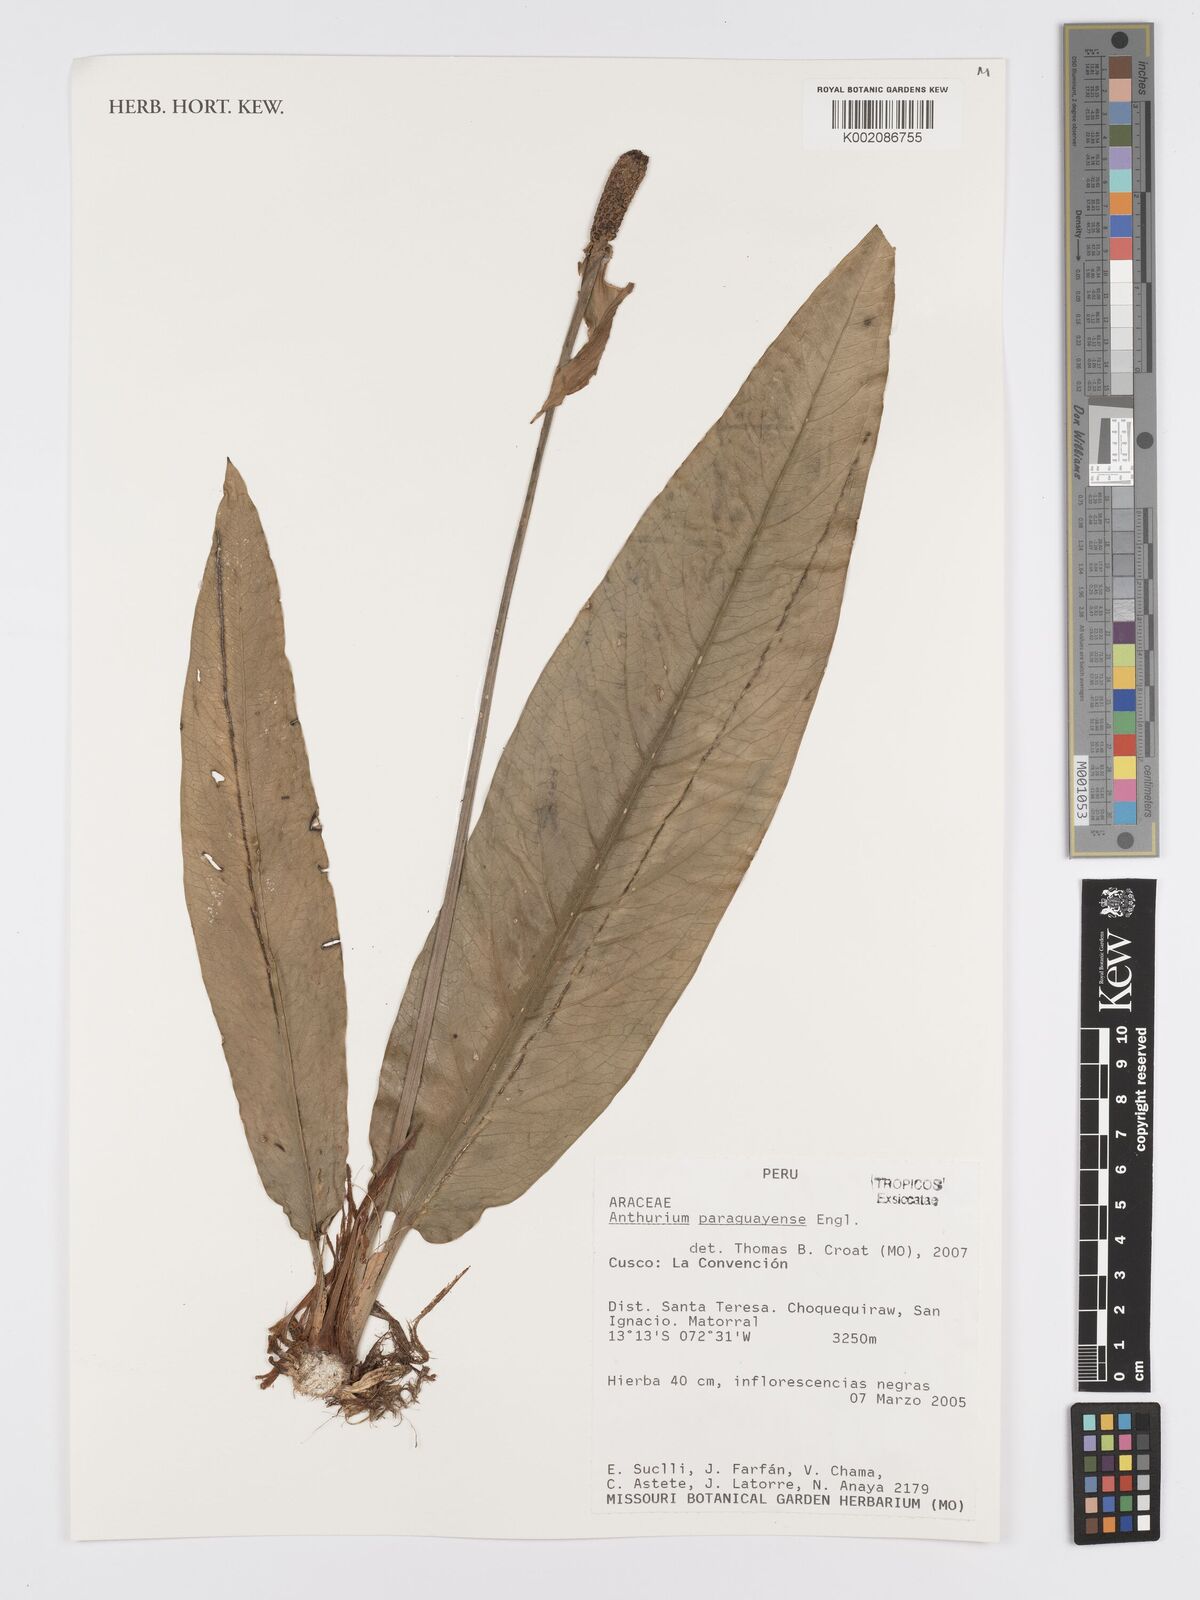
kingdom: Plantae
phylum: Tracheophyta
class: Liliopsida
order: Alismatales
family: Araceae
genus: Anthurium
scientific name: Anthurium paraguayense
